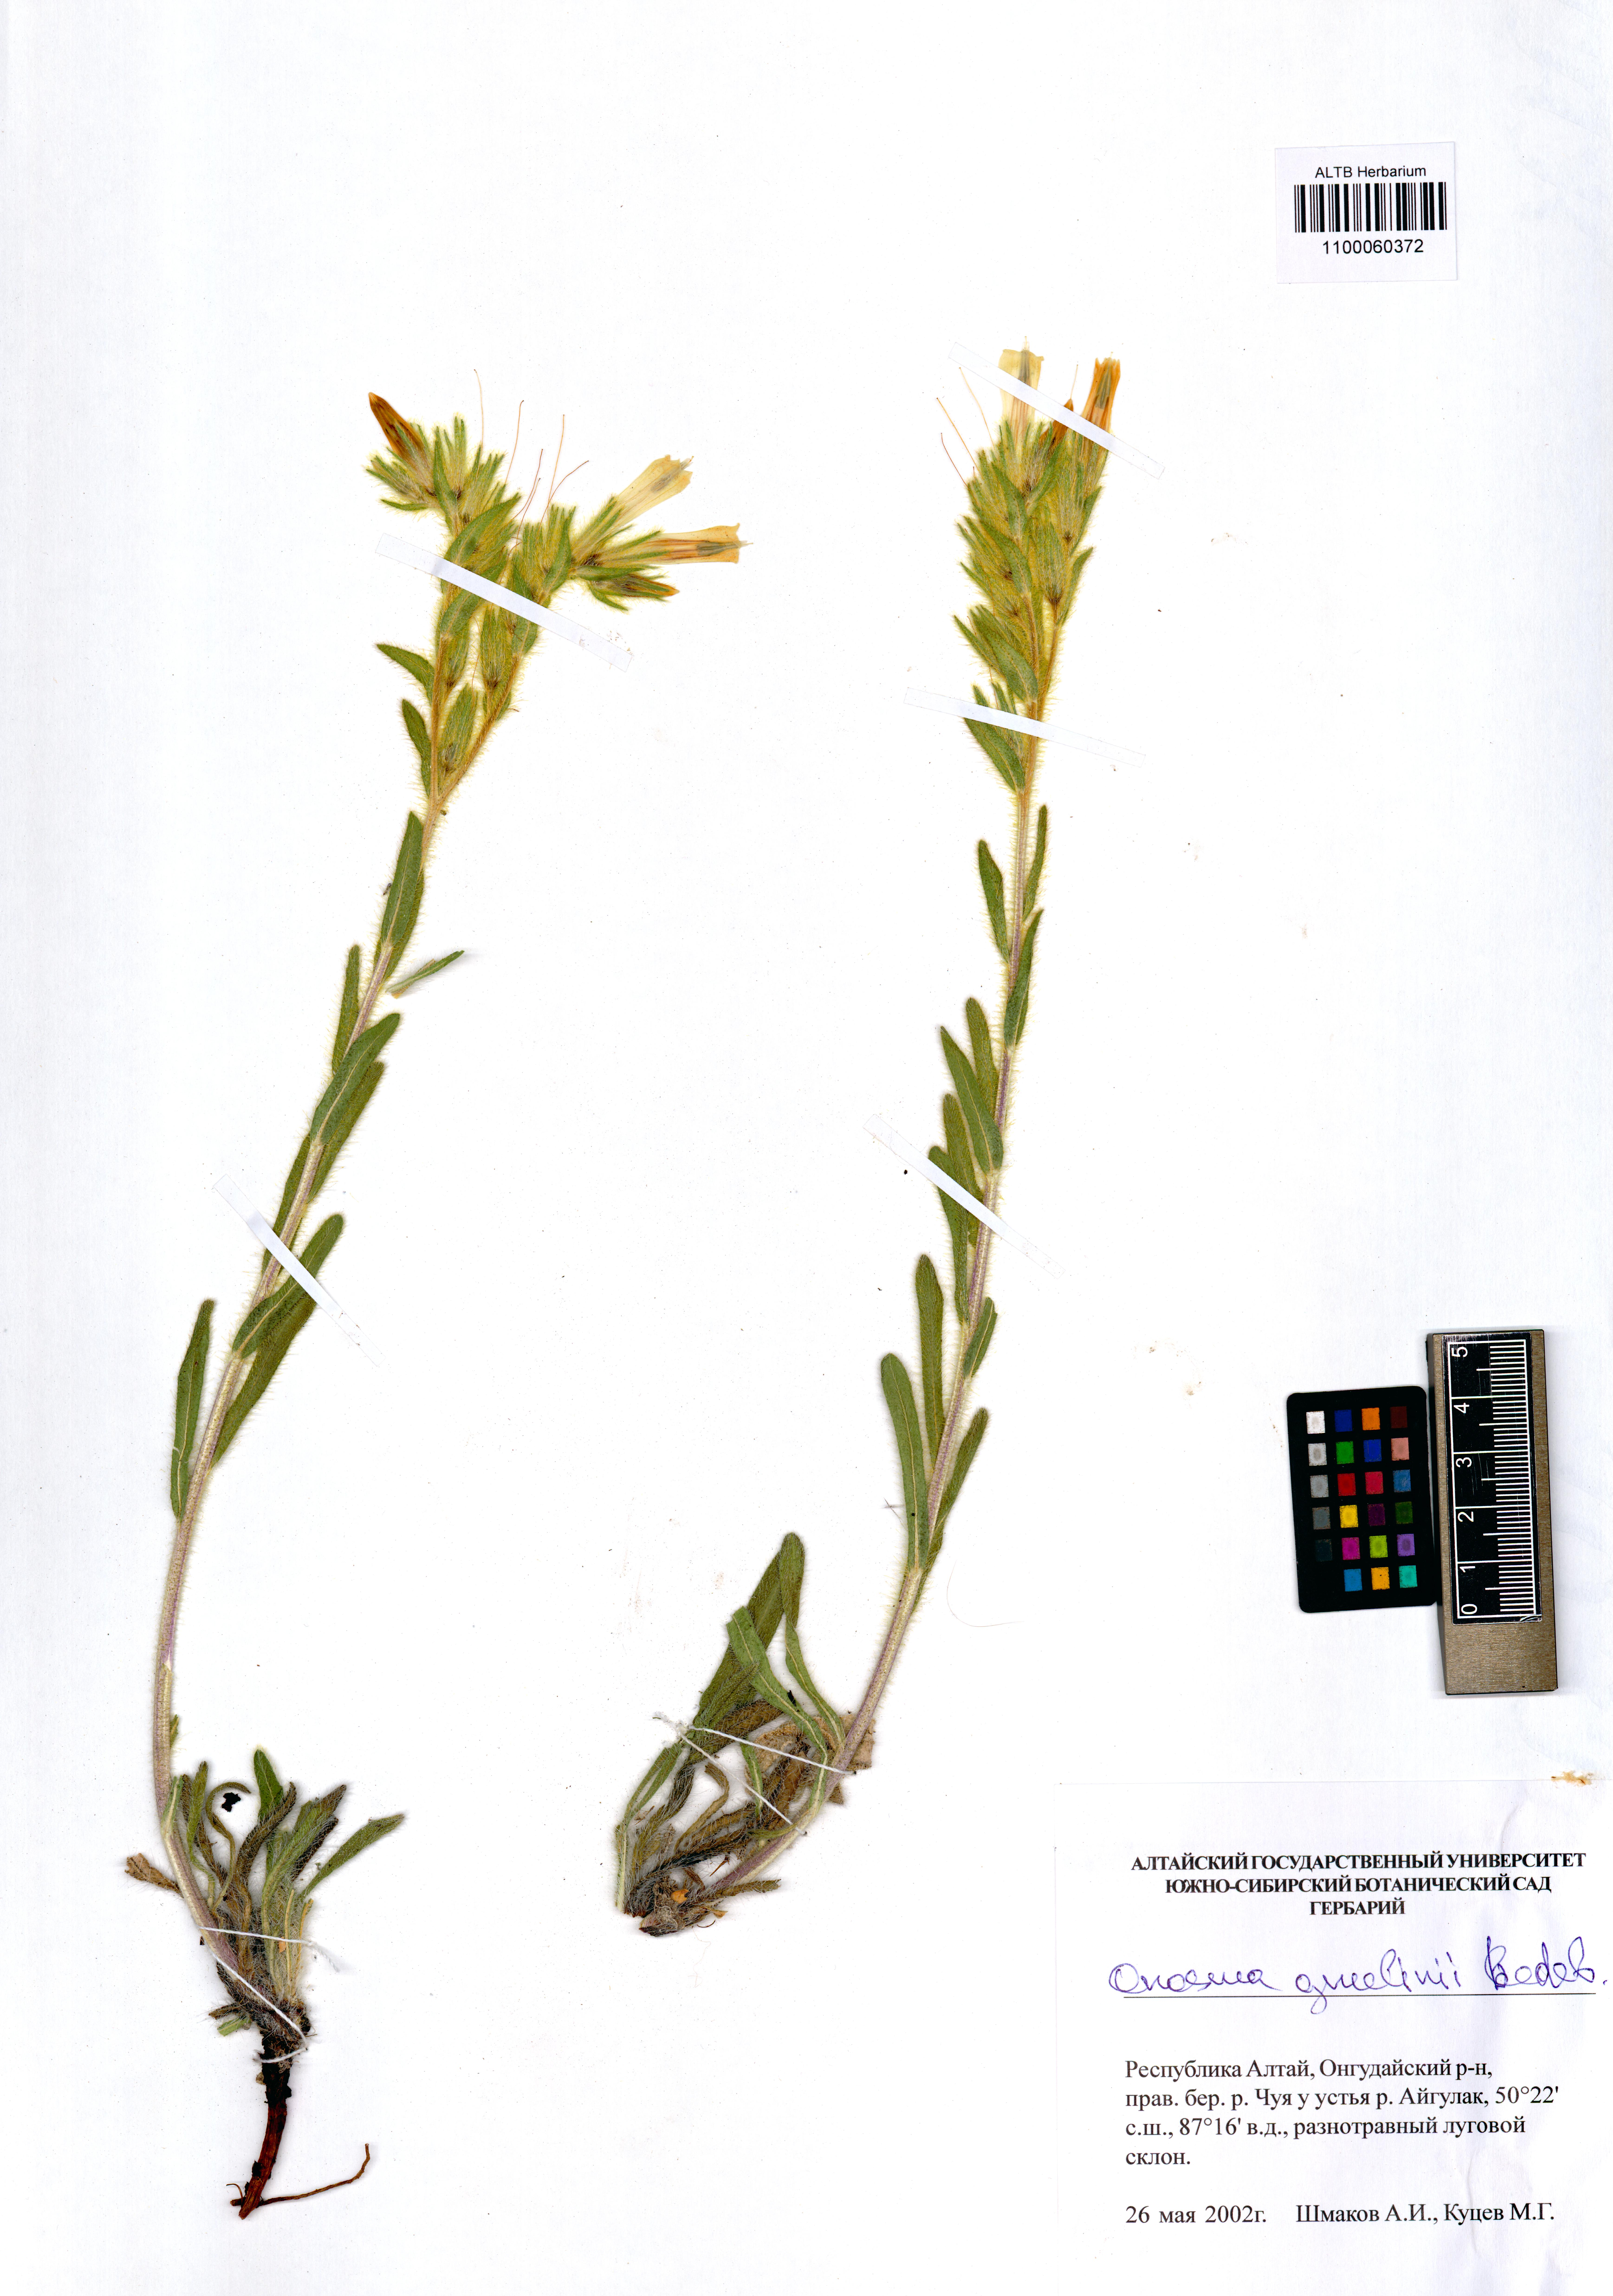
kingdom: Plantae
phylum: Tracheophyta
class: Magnoliopsida
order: Boraginales
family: Boraginaceae
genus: Onosma
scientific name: Onosma gmelinii
